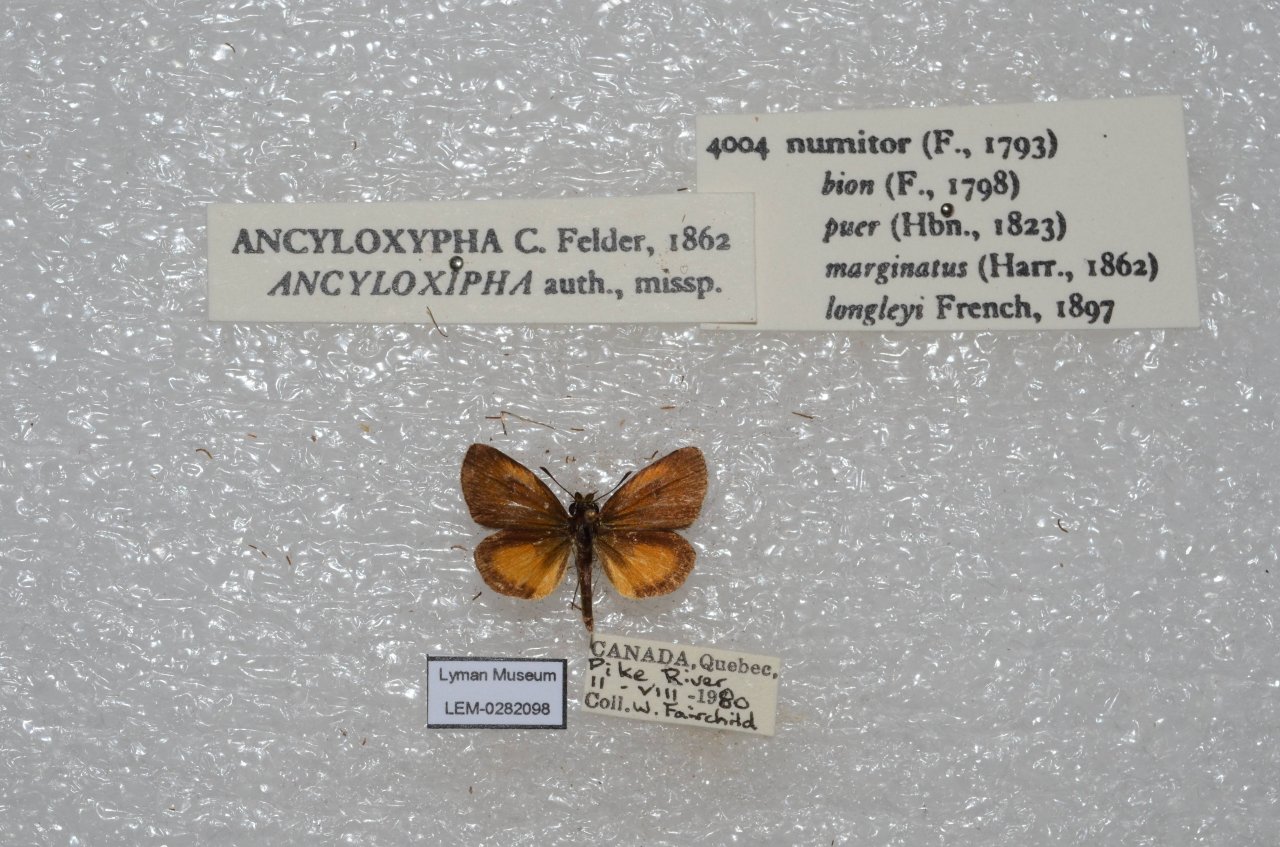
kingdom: Animalia
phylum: Arthropoda
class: Insecta
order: Lepidoptera
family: Hesperiidae
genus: Ancyloxypha
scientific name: Ancyloxypha numitor
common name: Least Skipper
